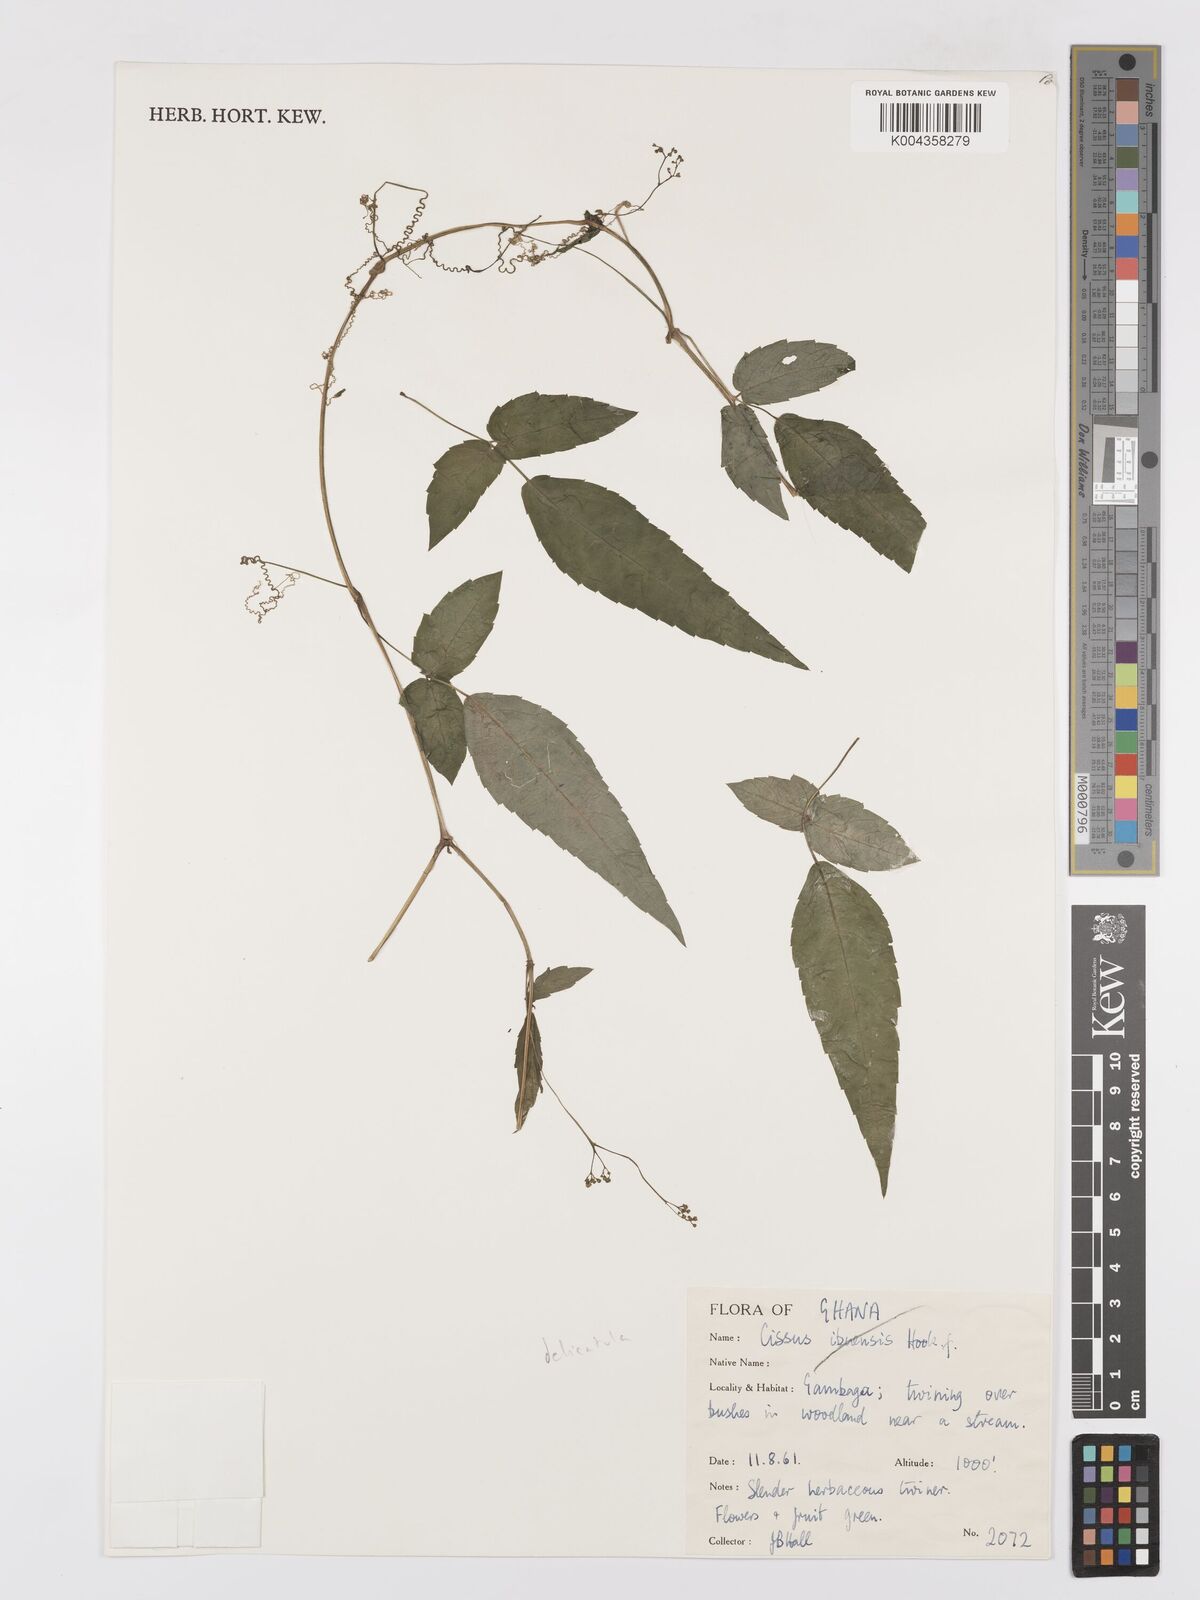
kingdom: Plantae
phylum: Tracheophyta
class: Magnoliopsida
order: Vitales
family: Vitaceae
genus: Afrocayratia
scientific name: Afrocayratia delicatula
